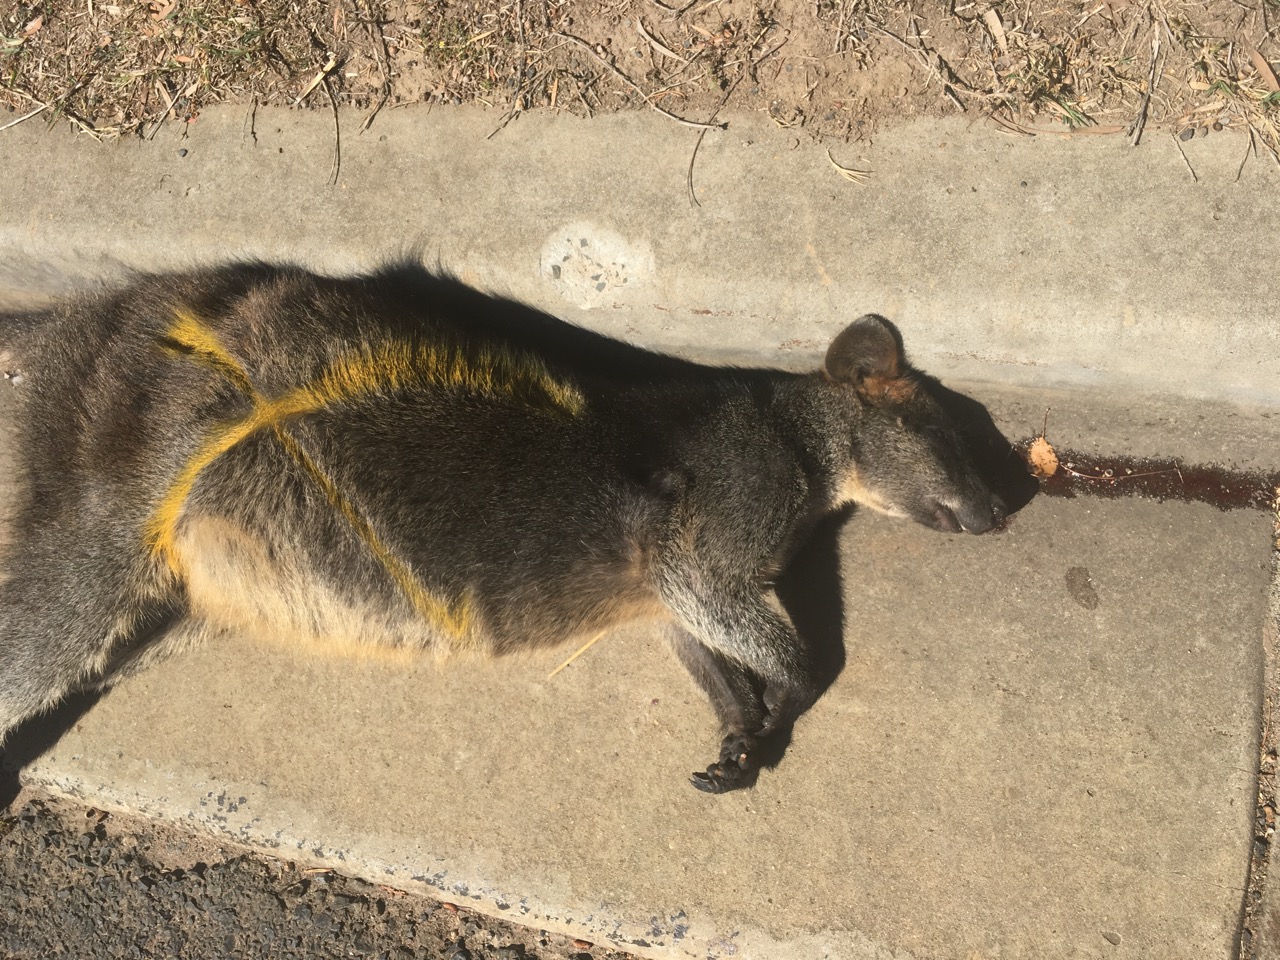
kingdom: Animalia
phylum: Chordata
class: Mammalia
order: Diprotodontia
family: Macropodidae
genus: Wallabia
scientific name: Wallabia bicolor
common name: Swamp wallaby
